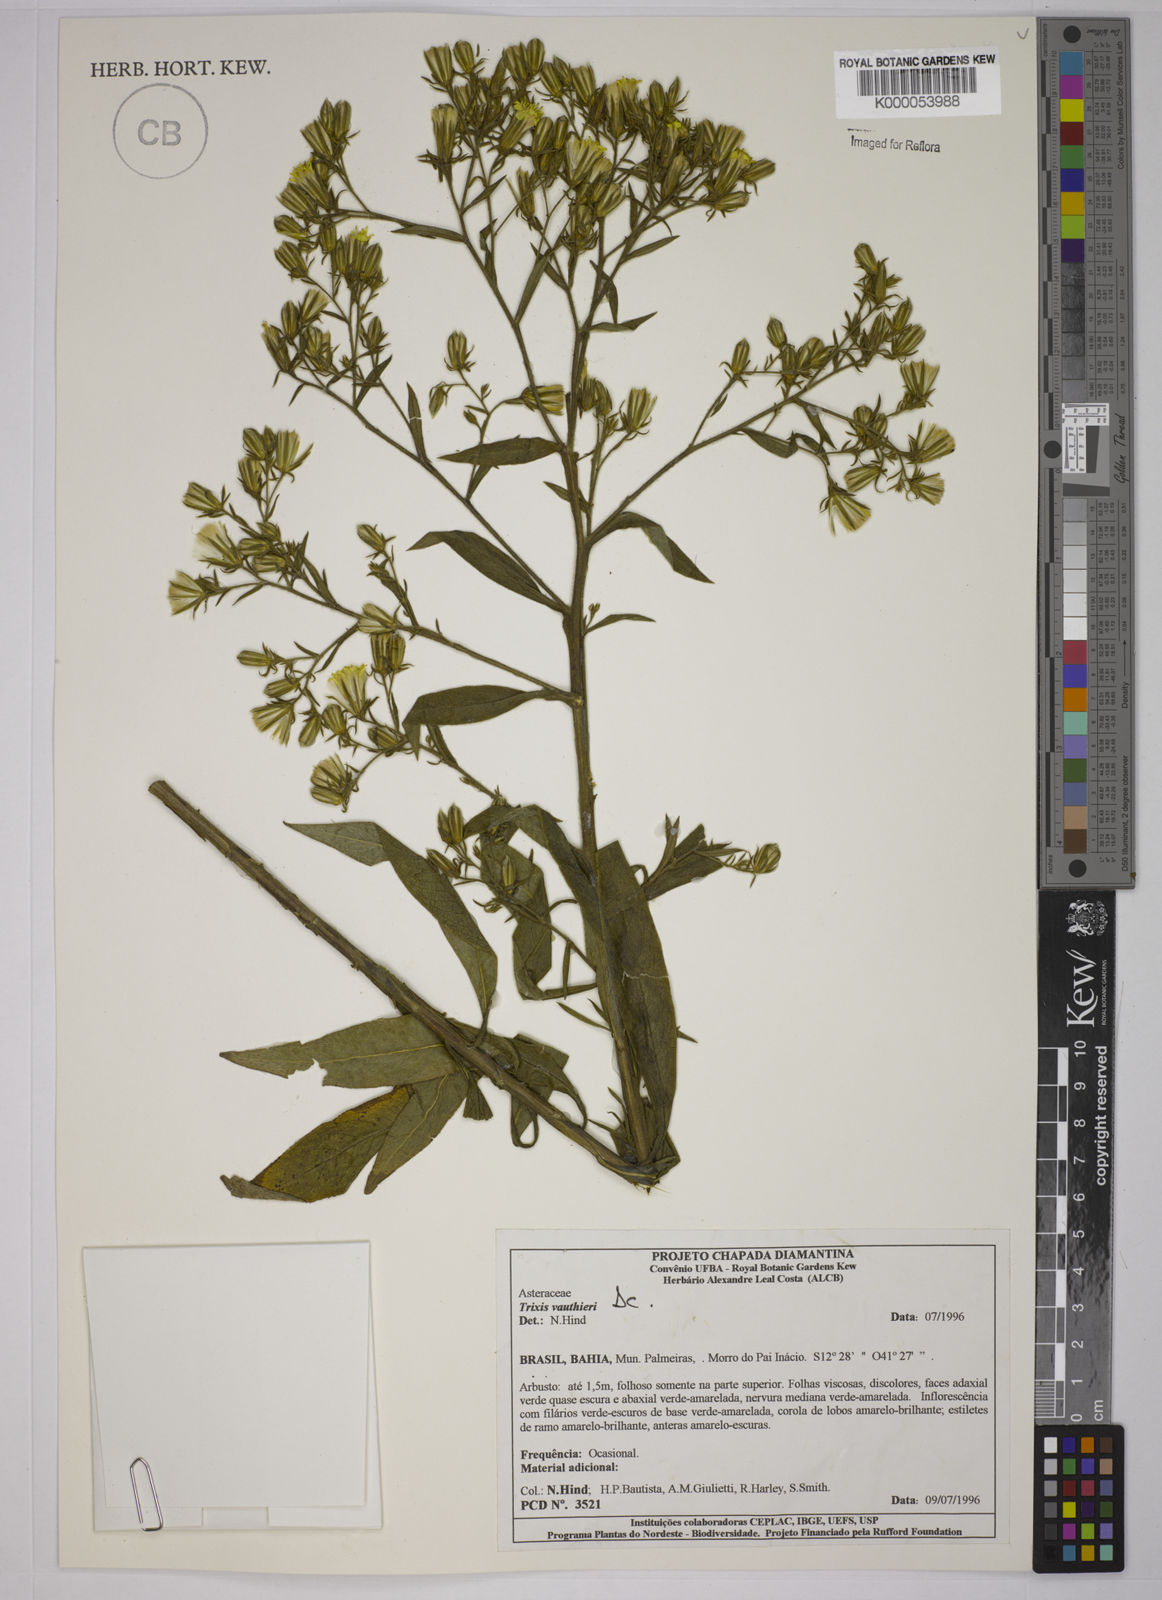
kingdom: Plantae
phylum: Tracheophyta
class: Magnoliopsida
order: Asterales
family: Asteraceae
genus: Trixis
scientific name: Trixis vauthieri
